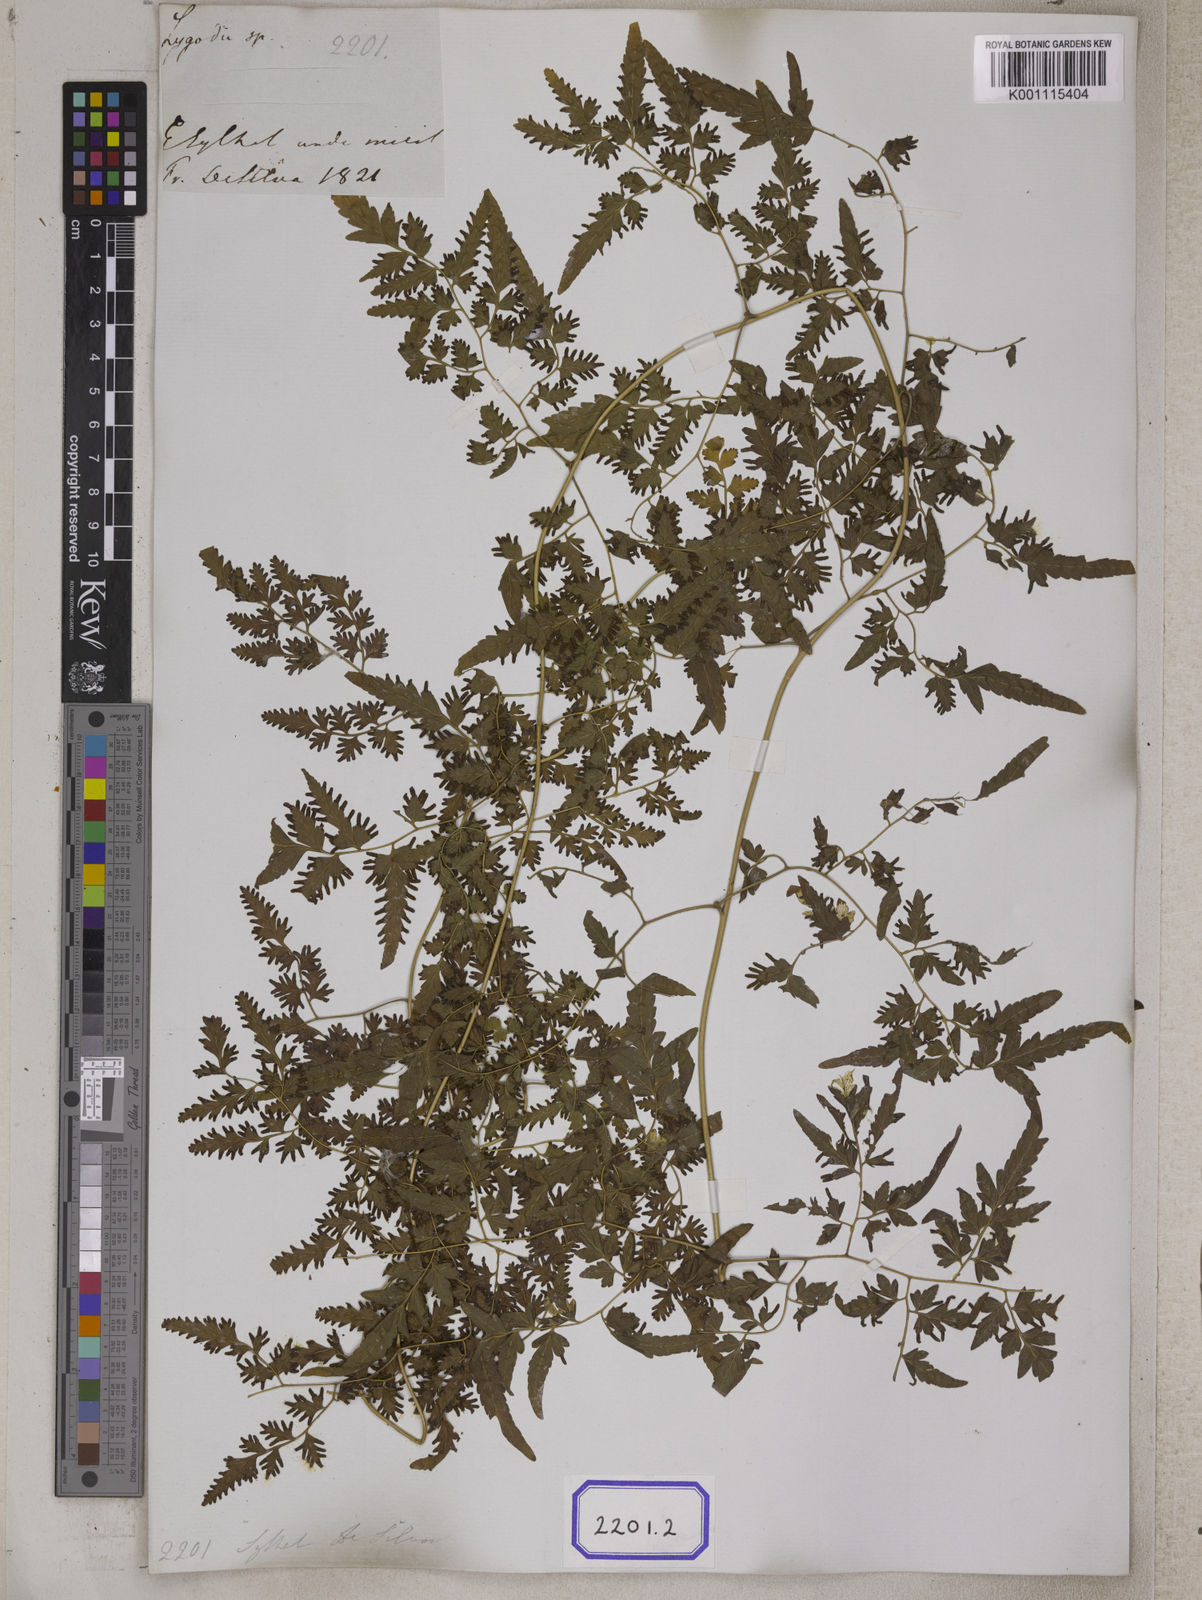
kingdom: Plantae
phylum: Tracheophyta
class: Polypodiopsida
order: Schizaeales
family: Lygodiaceae
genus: Lygodium
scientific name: Lygodium
